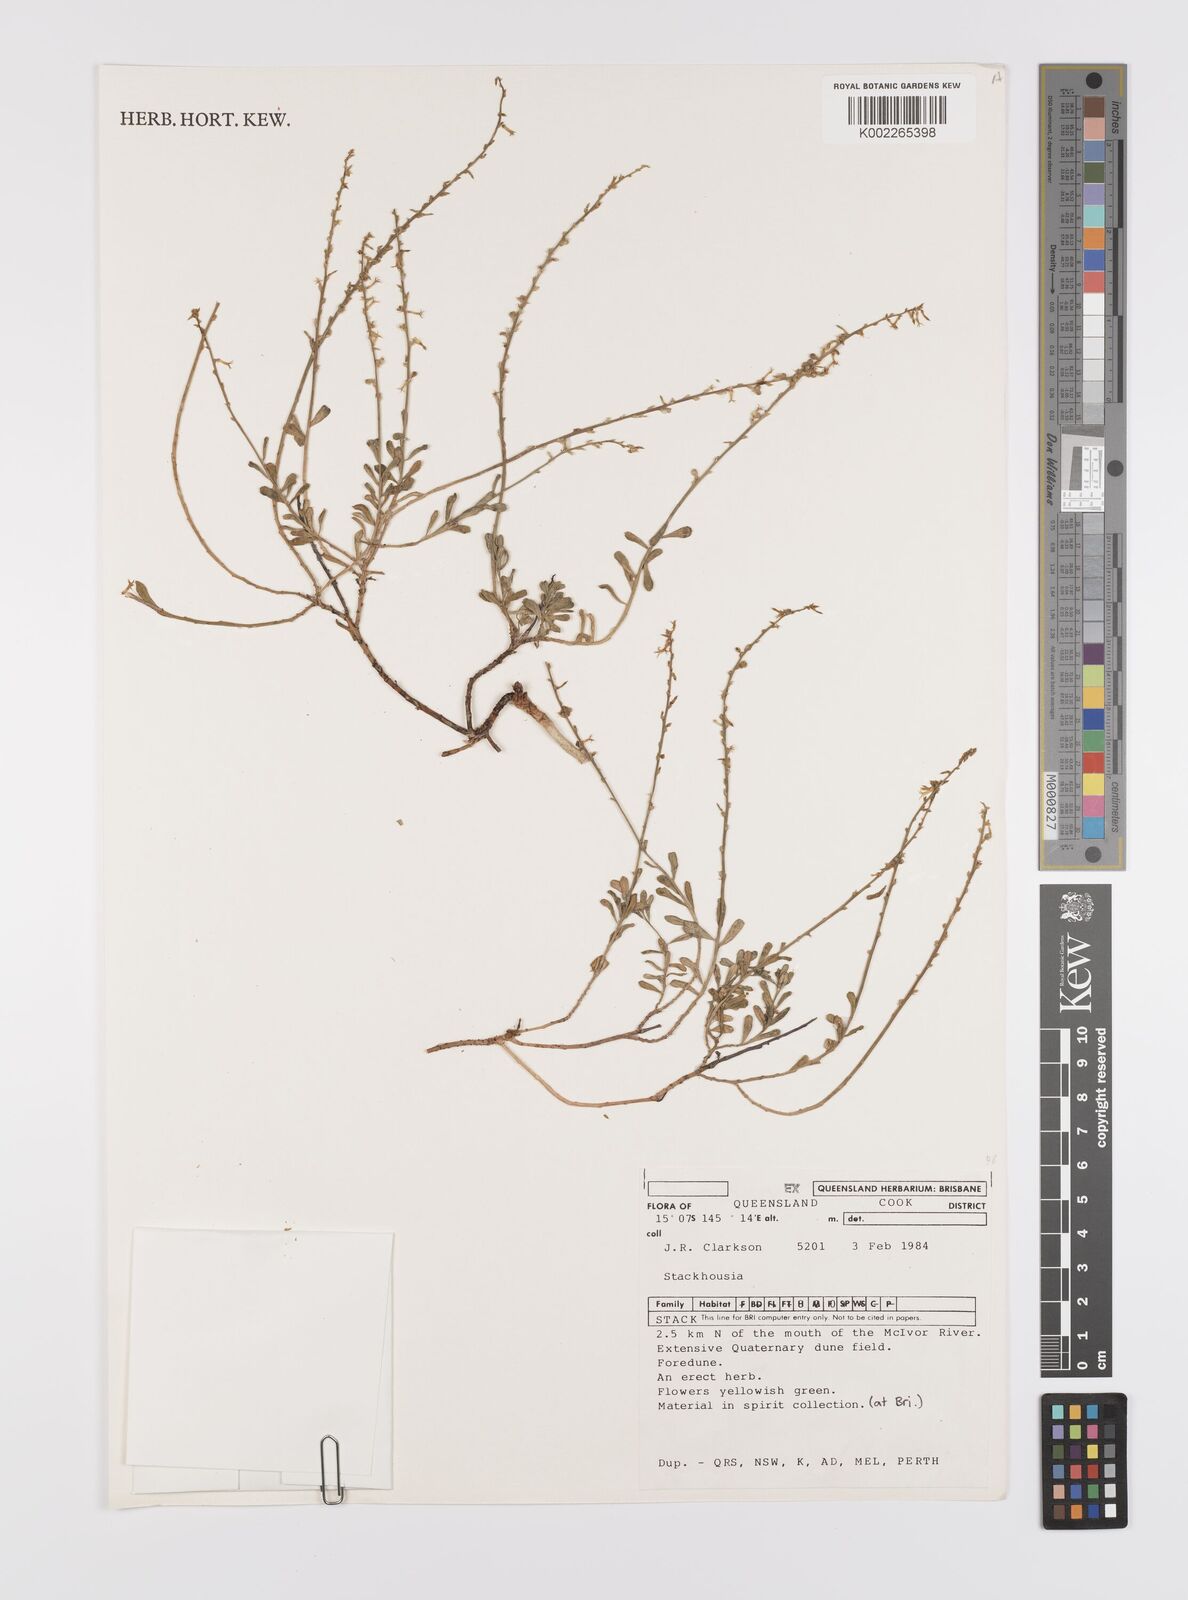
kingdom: Plantae
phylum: Tracheophyta
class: Magnoliopsida
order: Celastrales
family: Celastraceae
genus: Stackhousia
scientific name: Stackhousia
